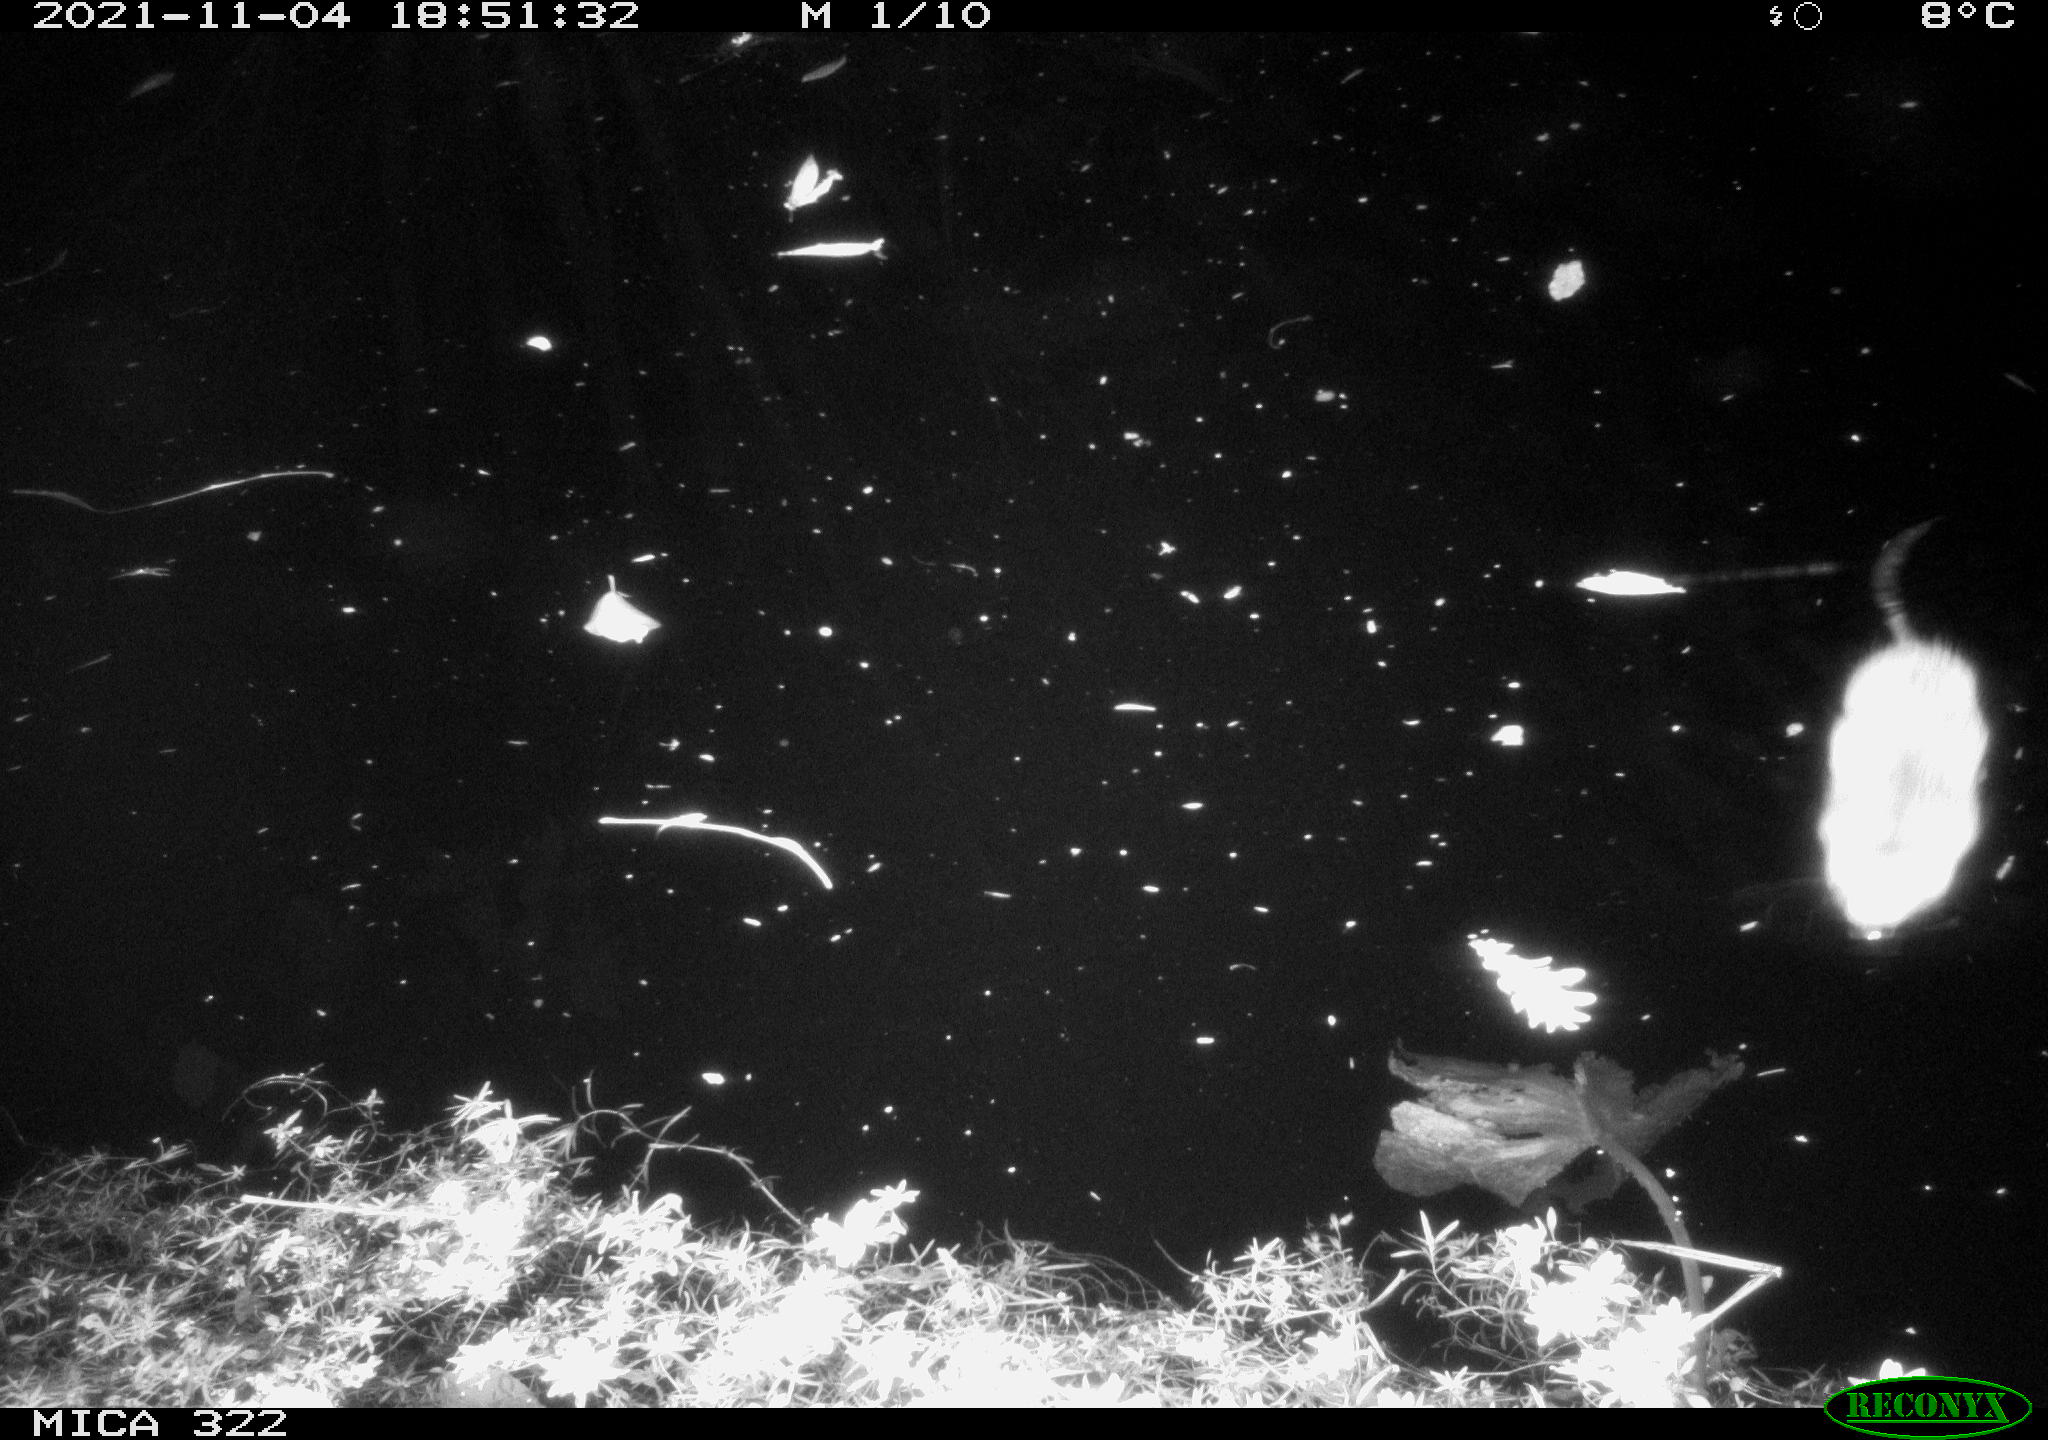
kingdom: Animalia
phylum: Chordata
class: Mammalia
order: Rodentia
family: Cricetidae
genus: Ondatra
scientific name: Ondatra zibethicus
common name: Muskrat
